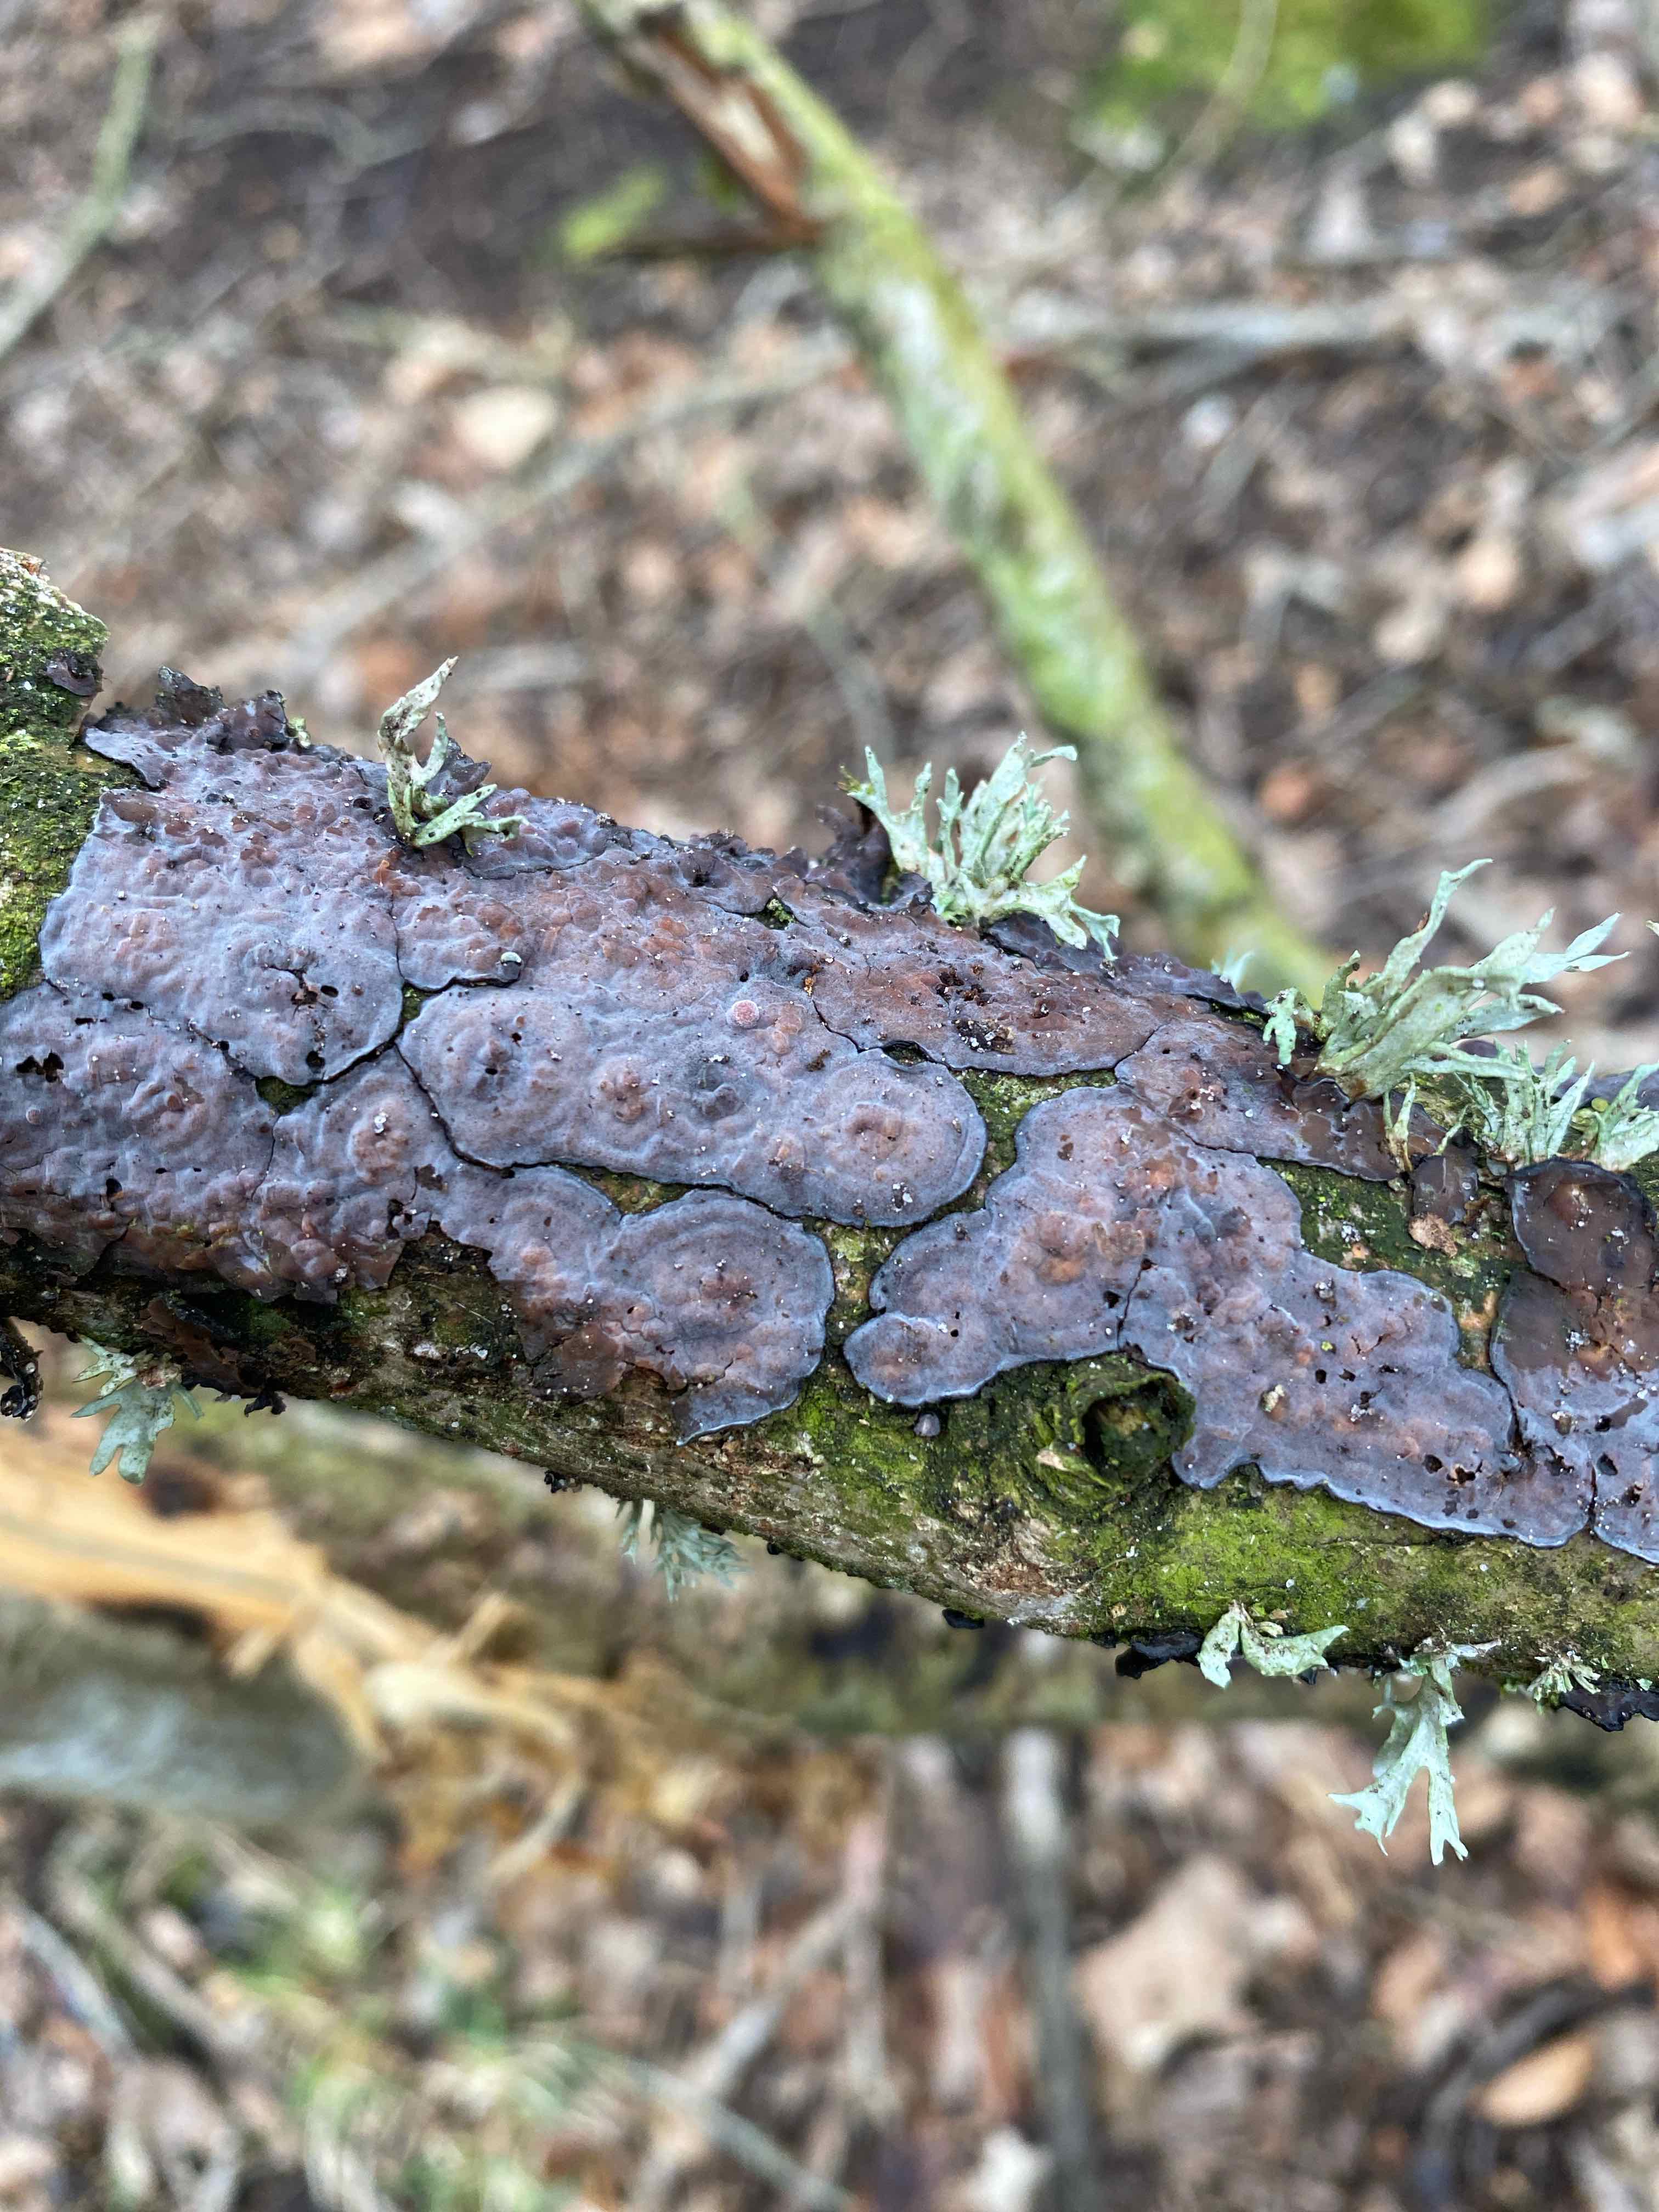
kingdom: Fungi
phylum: Basidiomycota
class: Agaricomycetes
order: Russulales
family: Peniophoraceae
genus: Peniophora
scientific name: Peniophora quercina
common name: ege-voksskind
